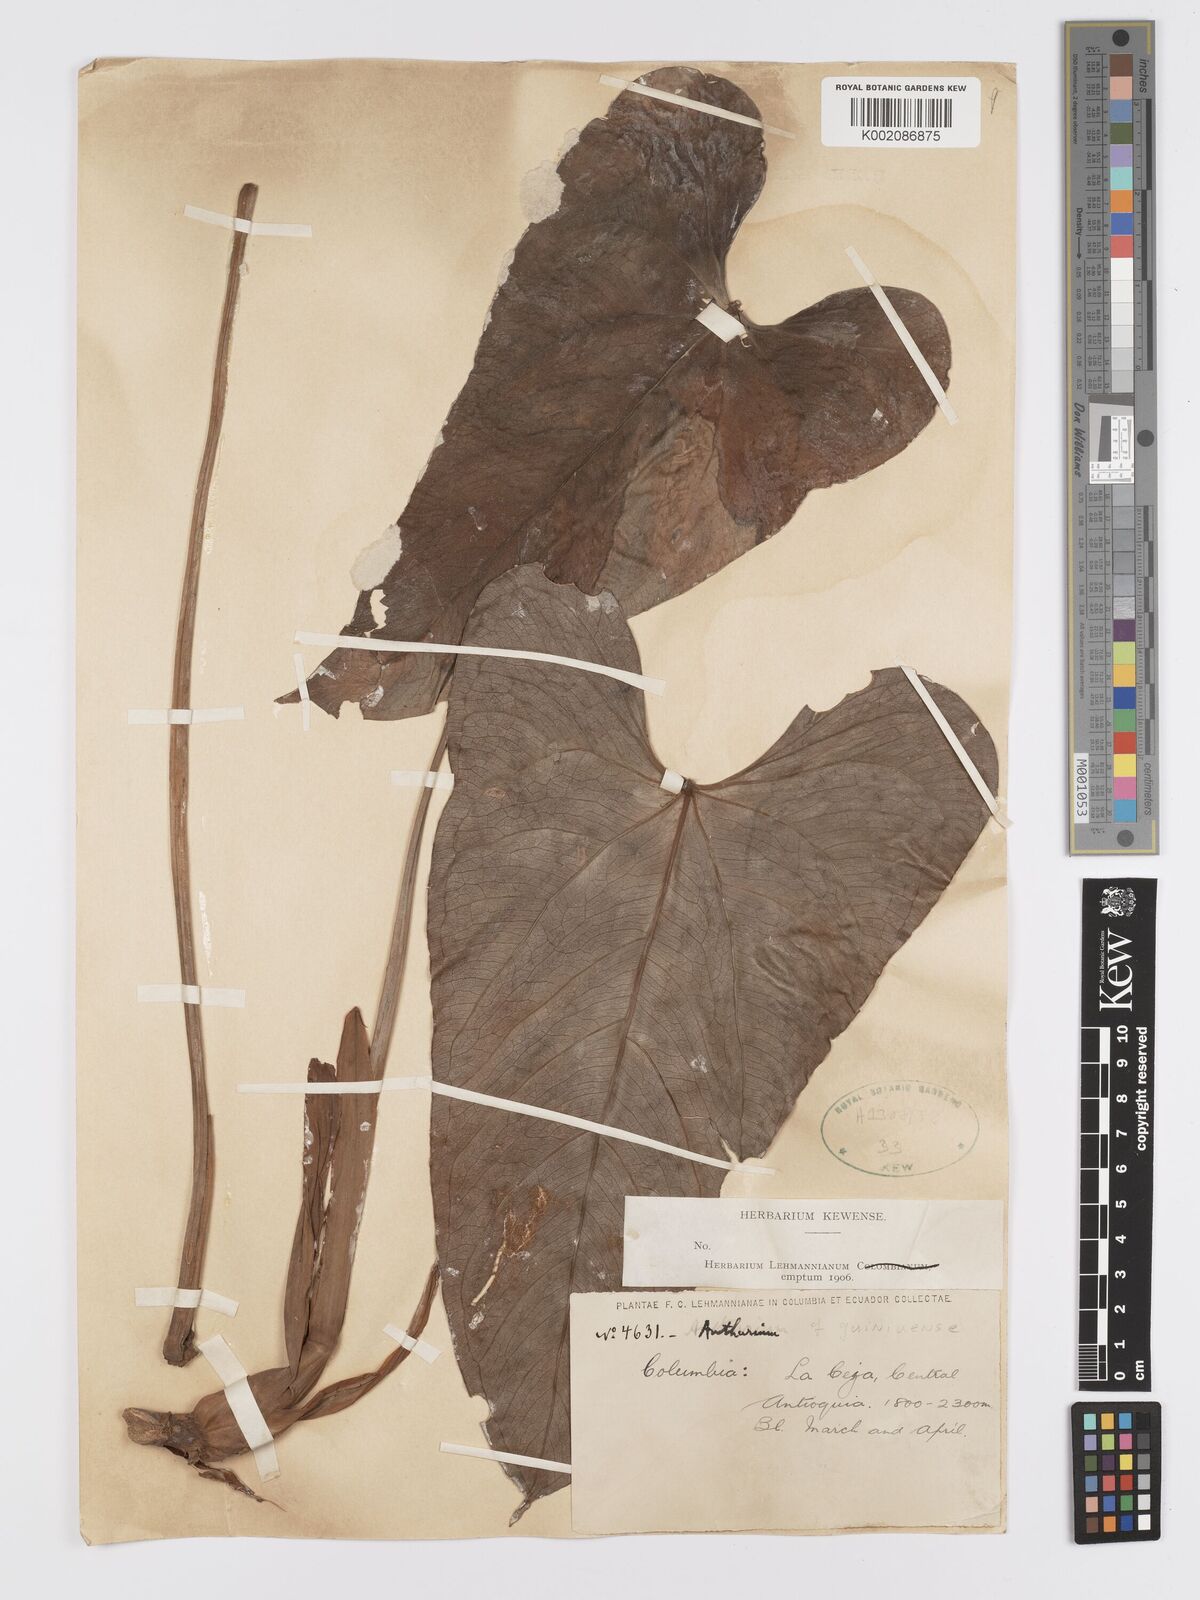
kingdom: Plantae
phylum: Tracheophyta
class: Liliopsida
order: Alismatales
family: Araceae
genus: Anthurium
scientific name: Anthurium quinindense
